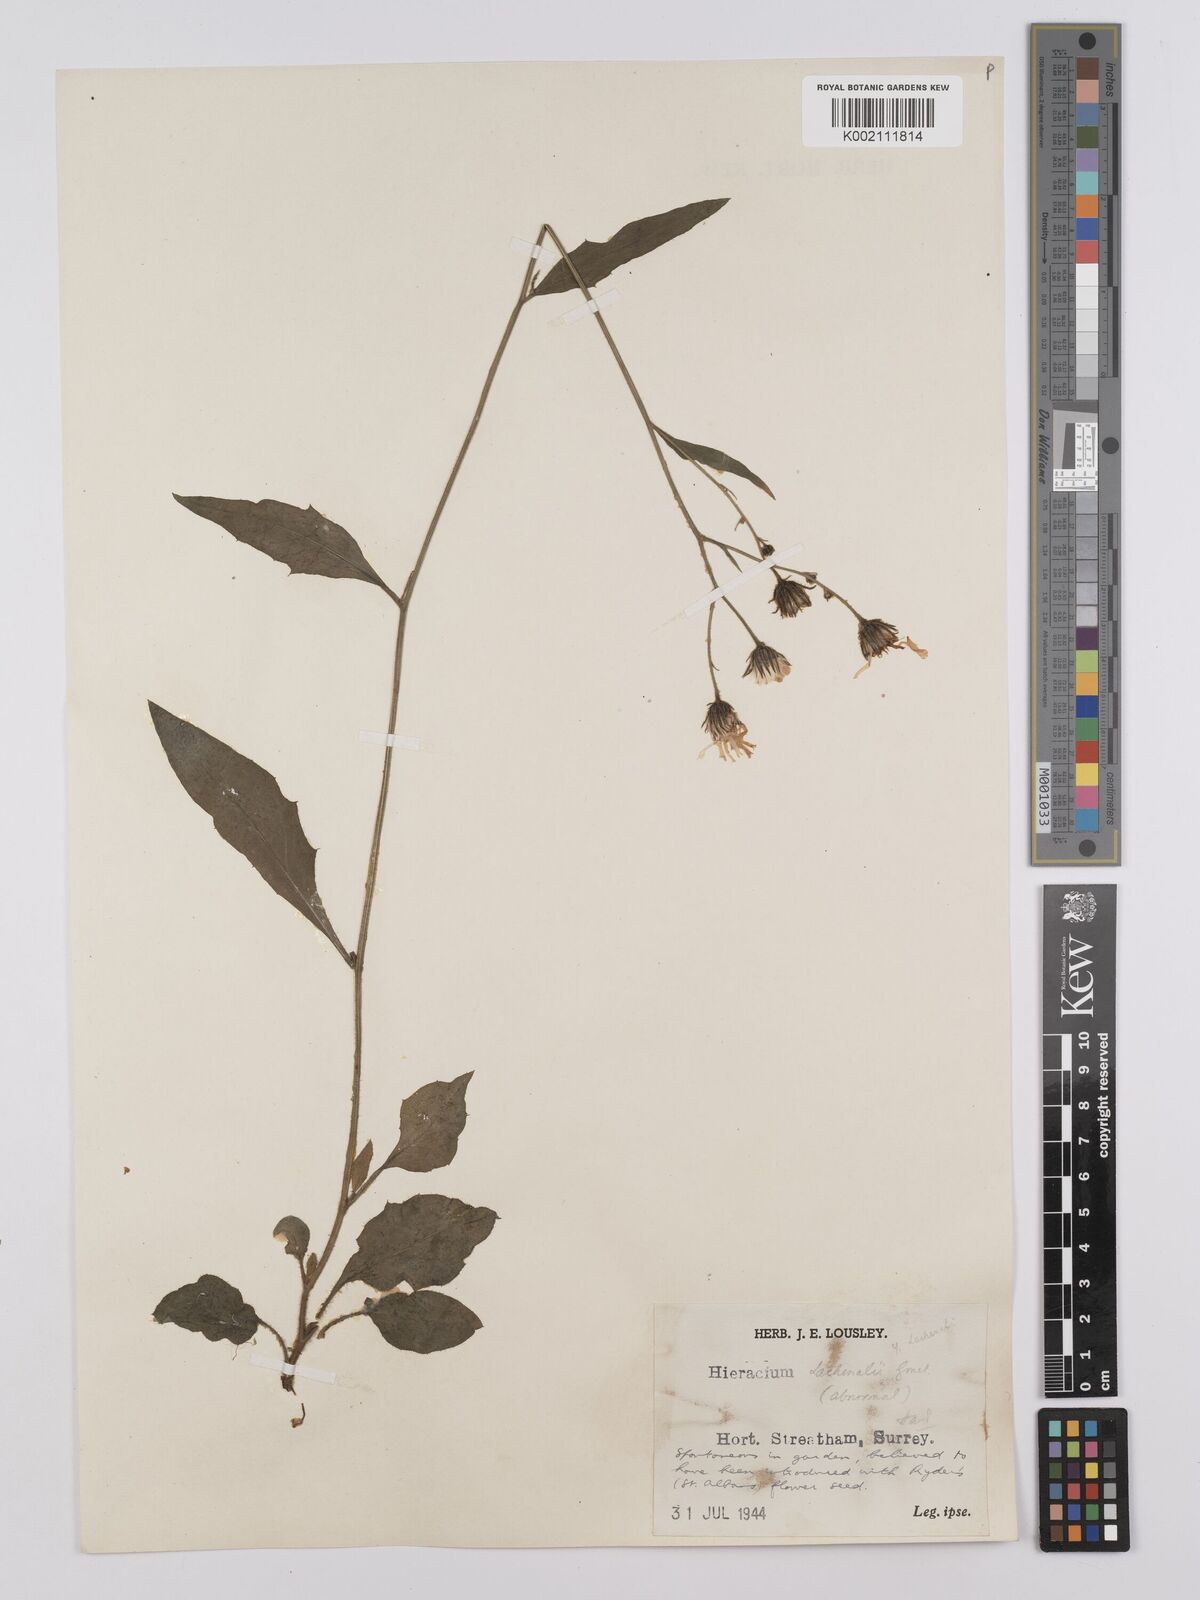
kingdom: Plantae
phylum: Tracheophyta
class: Magnoliopsida
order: Asterales
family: Asteraceae
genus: Hieracium
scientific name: Hieracium lachenalii
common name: Common hawkweed
